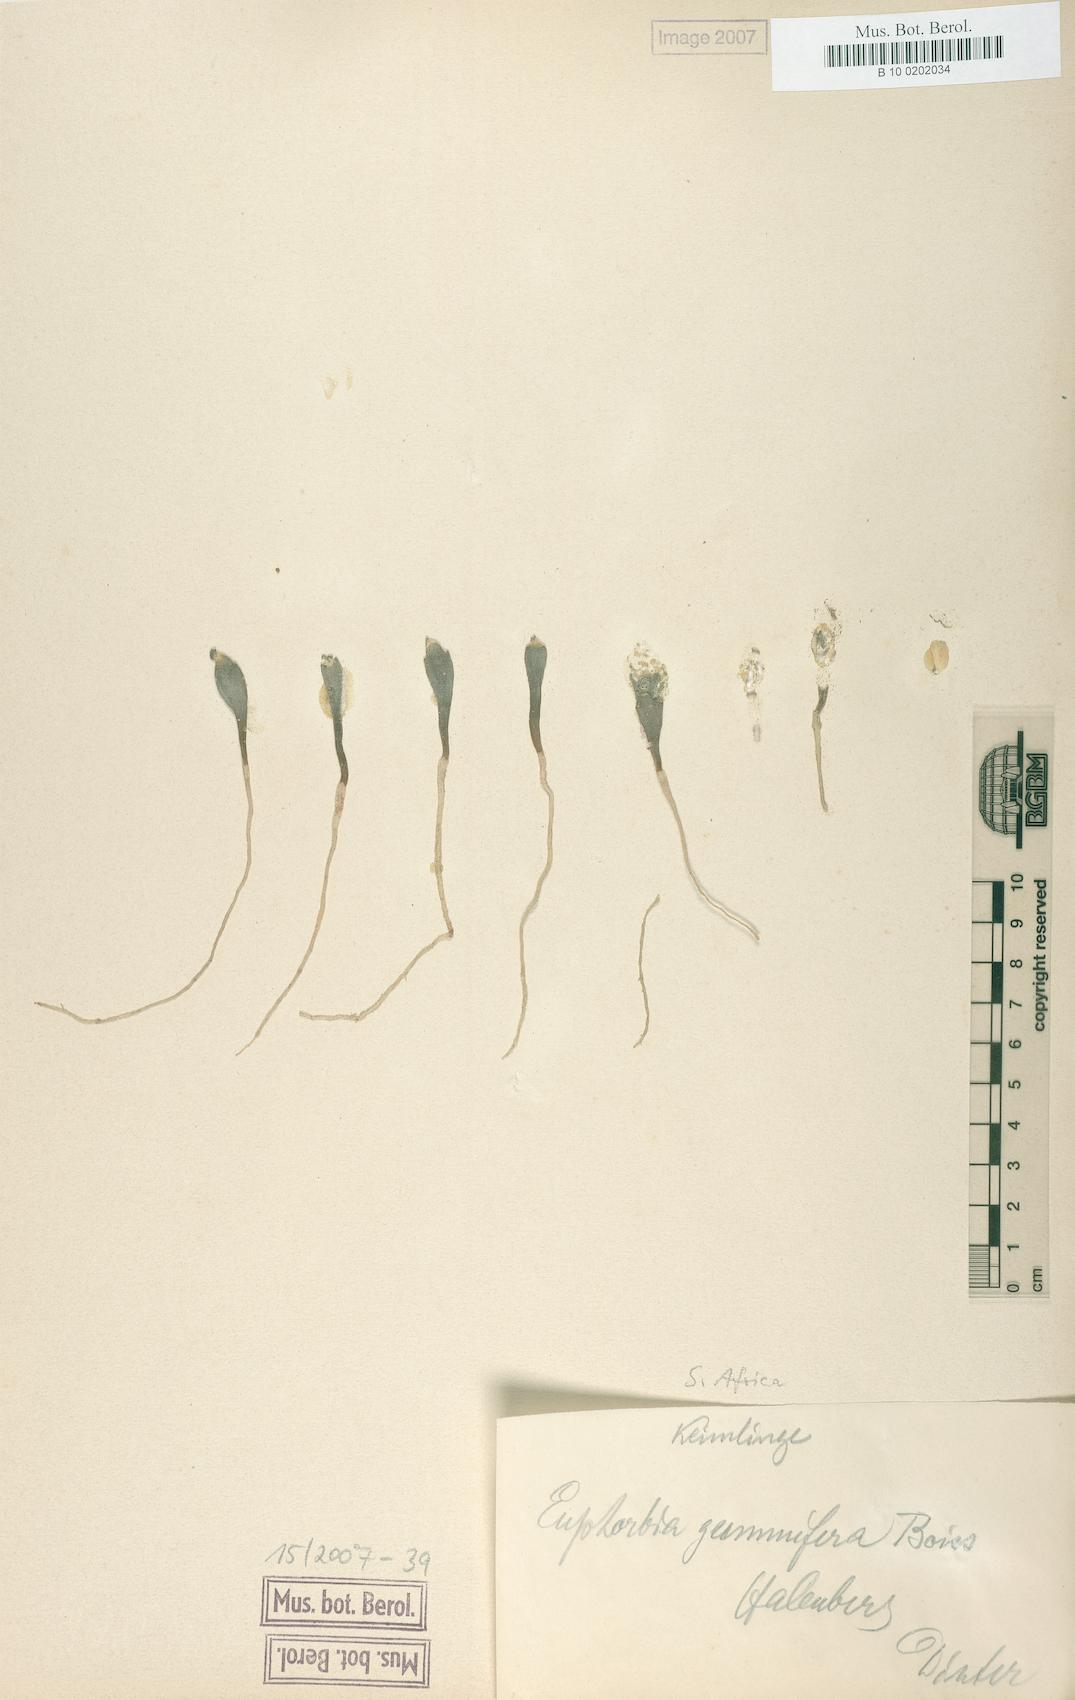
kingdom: Plantae
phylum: Tracheophyta
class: Magnoliopsida
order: Malpighiales
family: Euphorbiaceae
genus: Euphorbia
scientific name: Euphorbia gummifera
